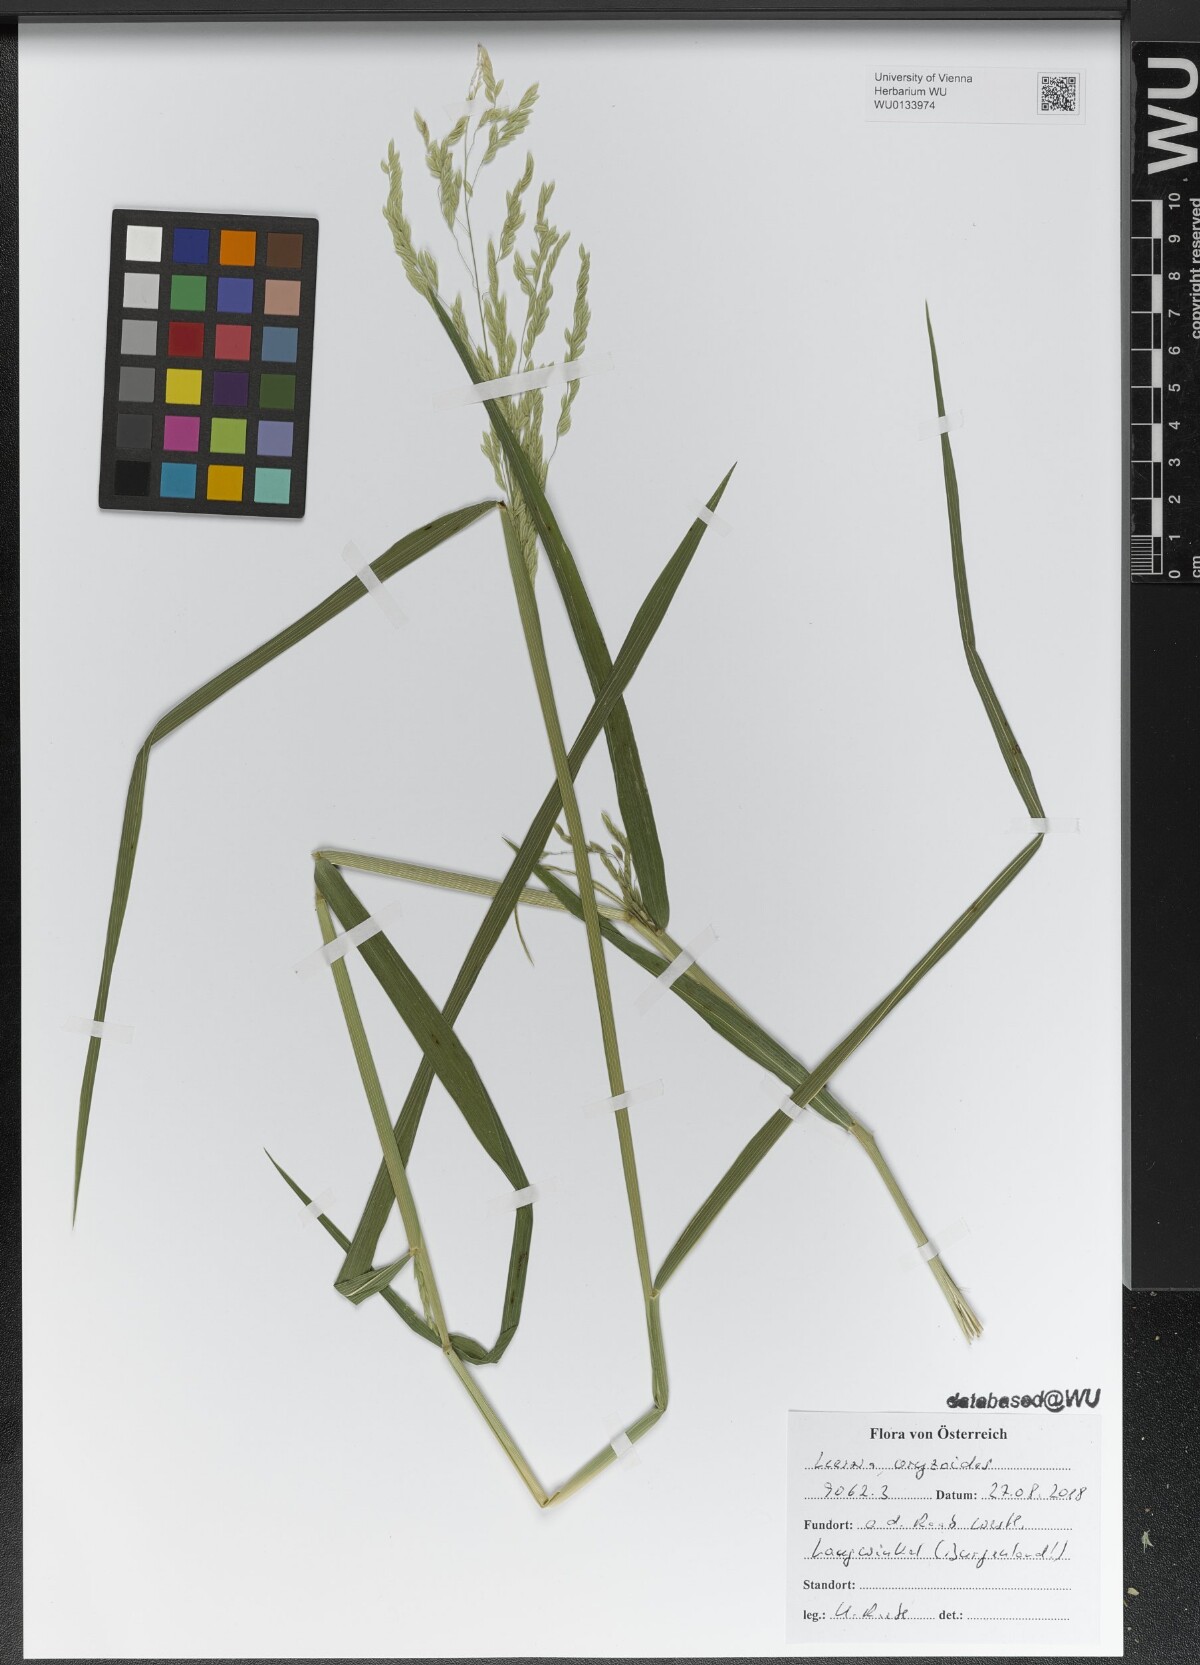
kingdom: Plantae
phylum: Tracheophyta
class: Liliopsida
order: Poales
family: Poaceae
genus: Leersia
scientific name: Leersia oryzoides
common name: Cut-grass
